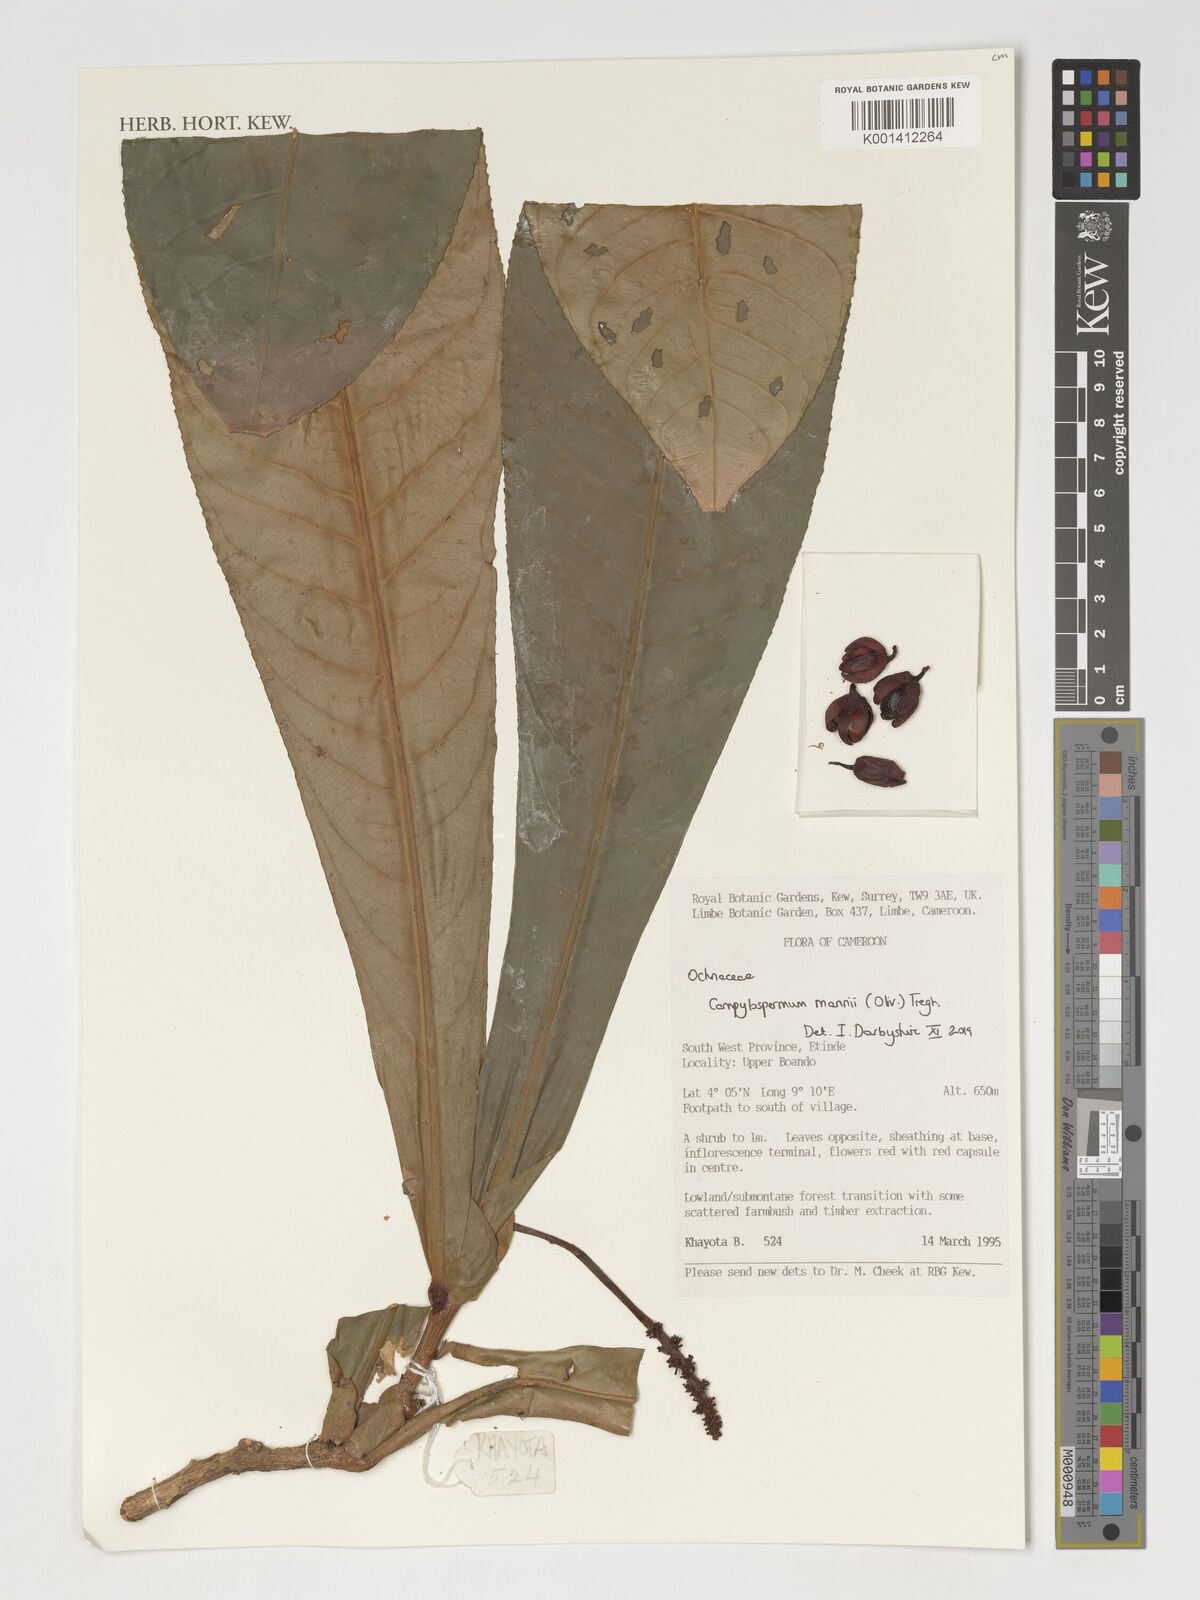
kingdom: Plantae
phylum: Tracheophyta
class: Magnoliopsida
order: Malpighiales
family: Ochnaceae
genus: Campylospermum
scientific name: Campylospermum mannii
